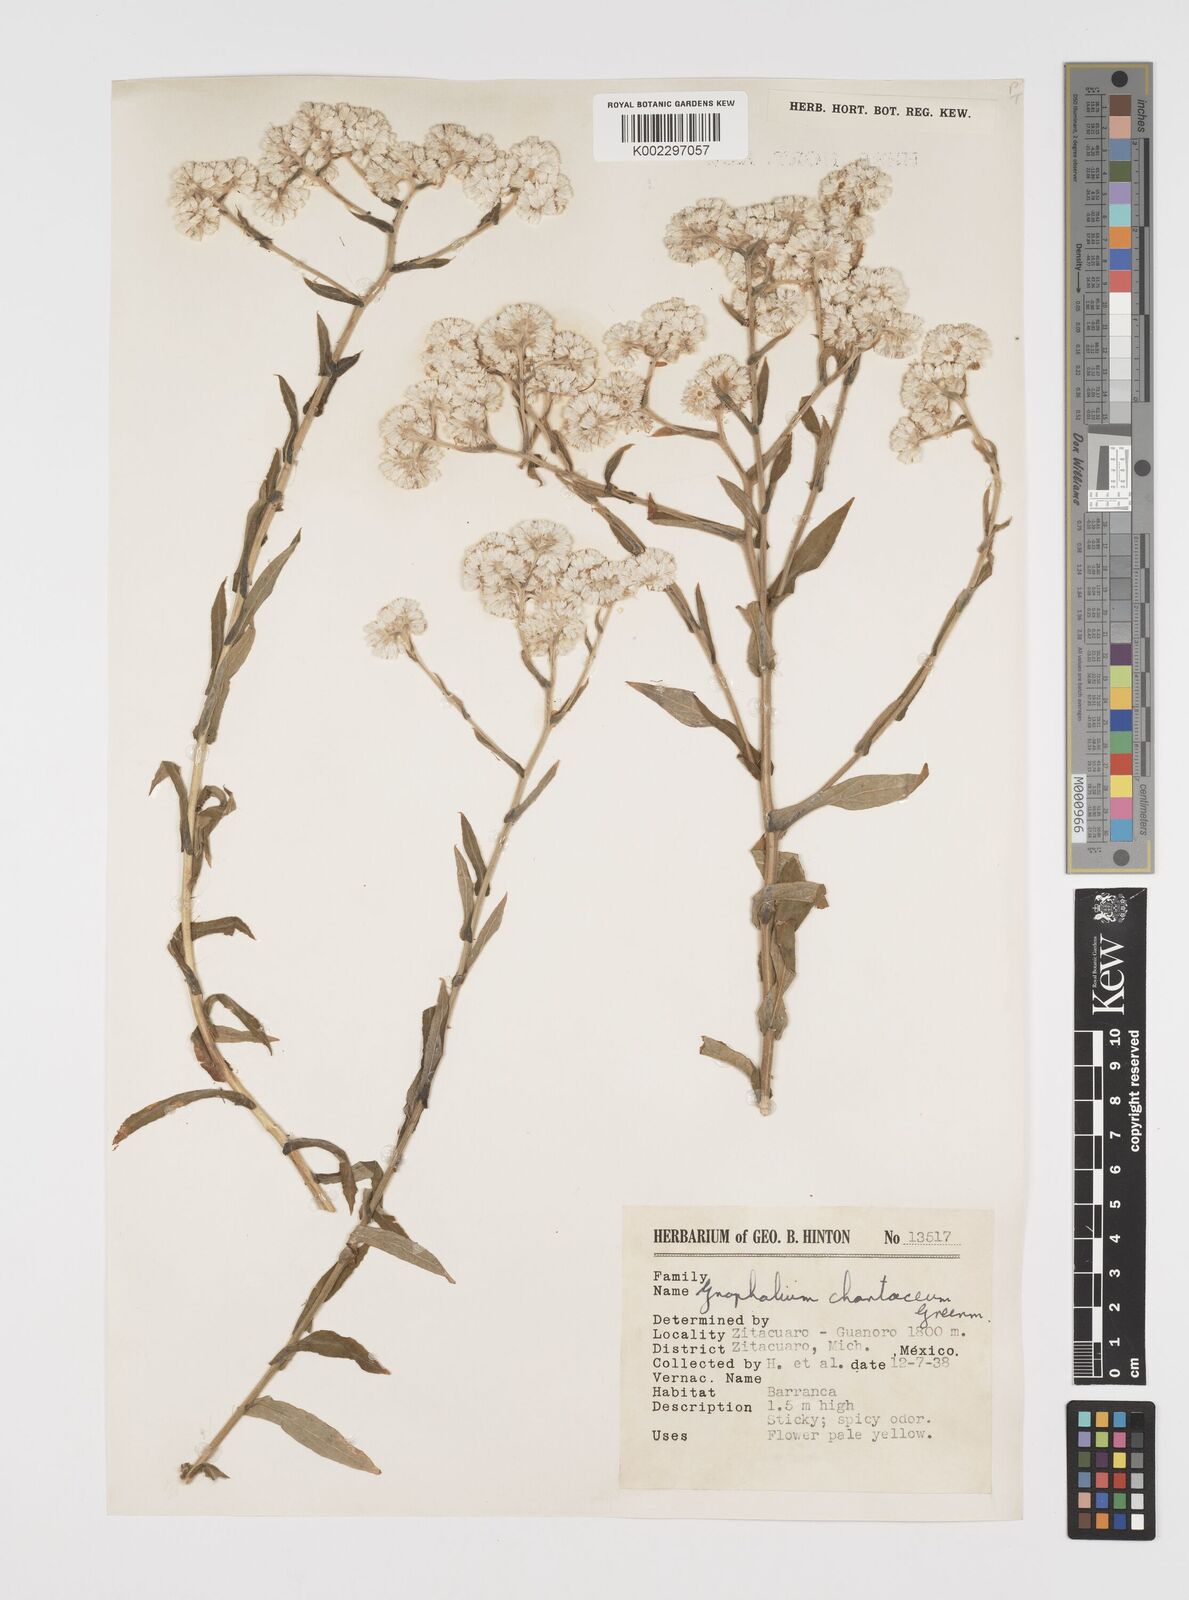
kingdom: Plantae
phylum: Tracheophyta
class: Magnoliopsida
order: Asterales
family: Asteraceae
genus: Pseudognaphalium
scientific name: Pseudognaphalium chartaceum
